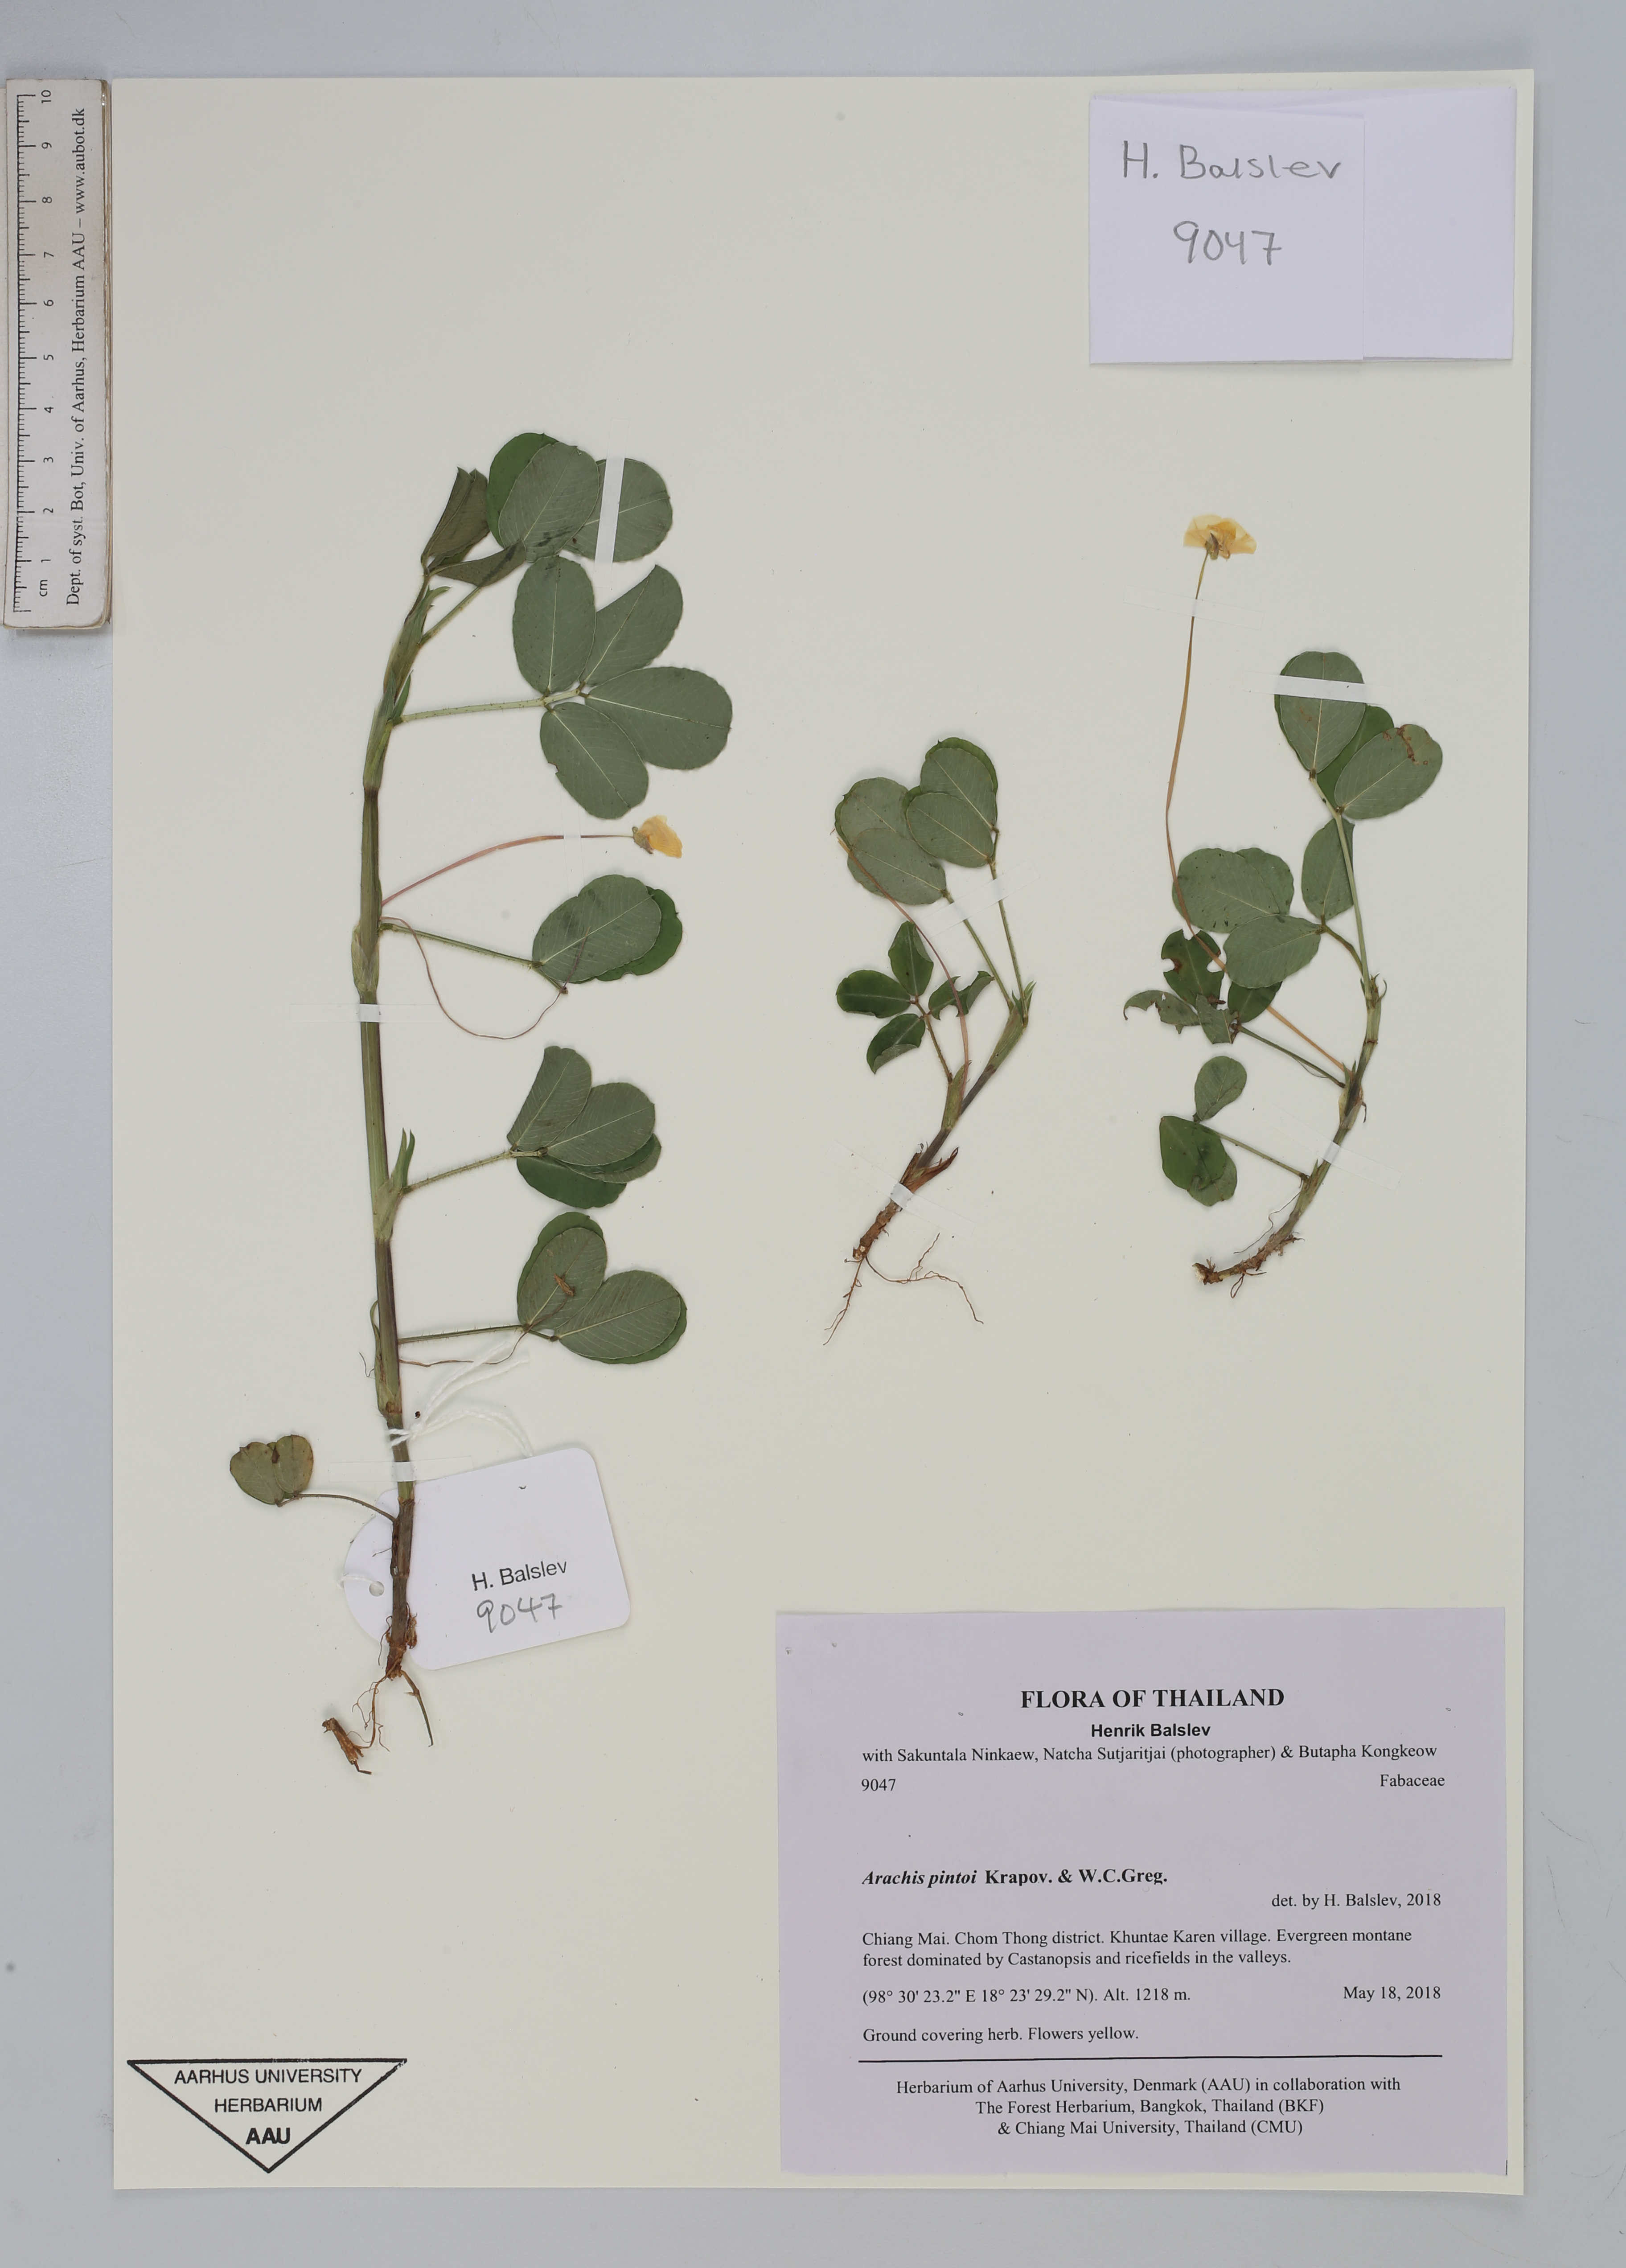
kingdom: Plantae
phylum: Tracheophyta
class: Magnoliopsida
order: Fabales
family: Fabaceae
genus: Arachis
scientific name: Arachis pintoi
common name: Pinto peanut
